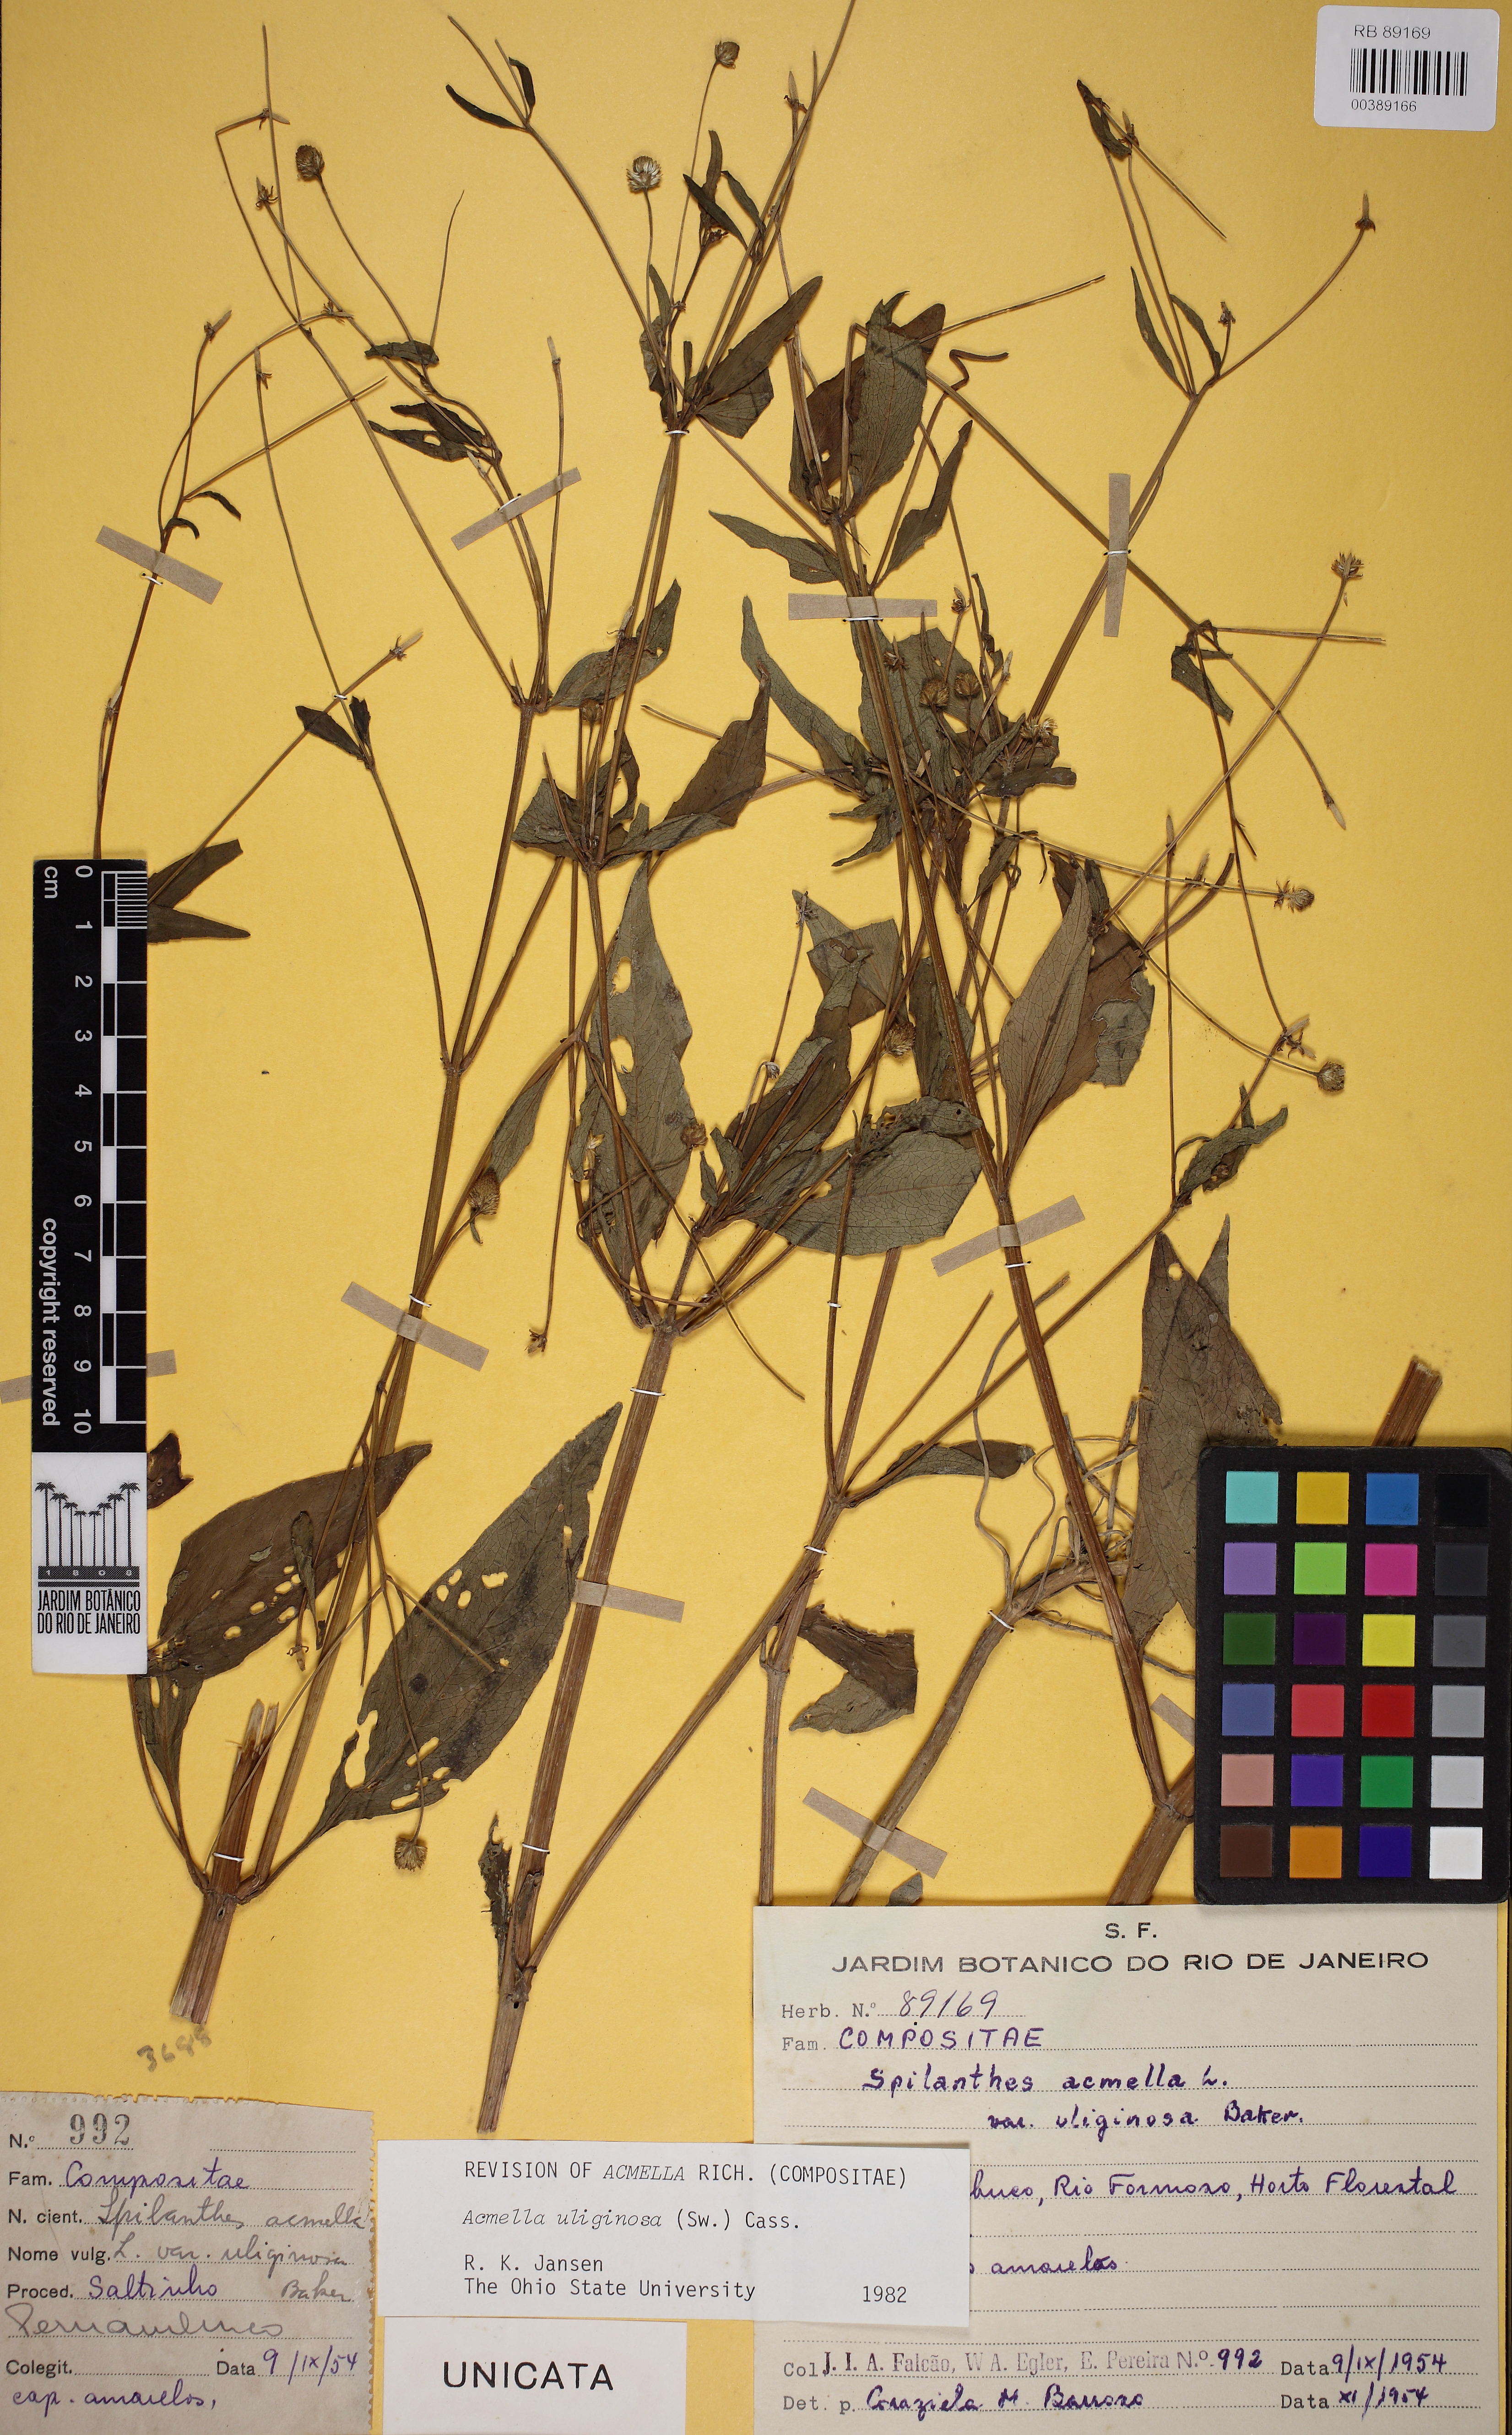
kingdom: Plantae
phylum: Tracheophyta
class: Magnoliopsida
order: Asterales
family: Asteraceae
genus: Acmella
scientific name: Acmella uliginosa
